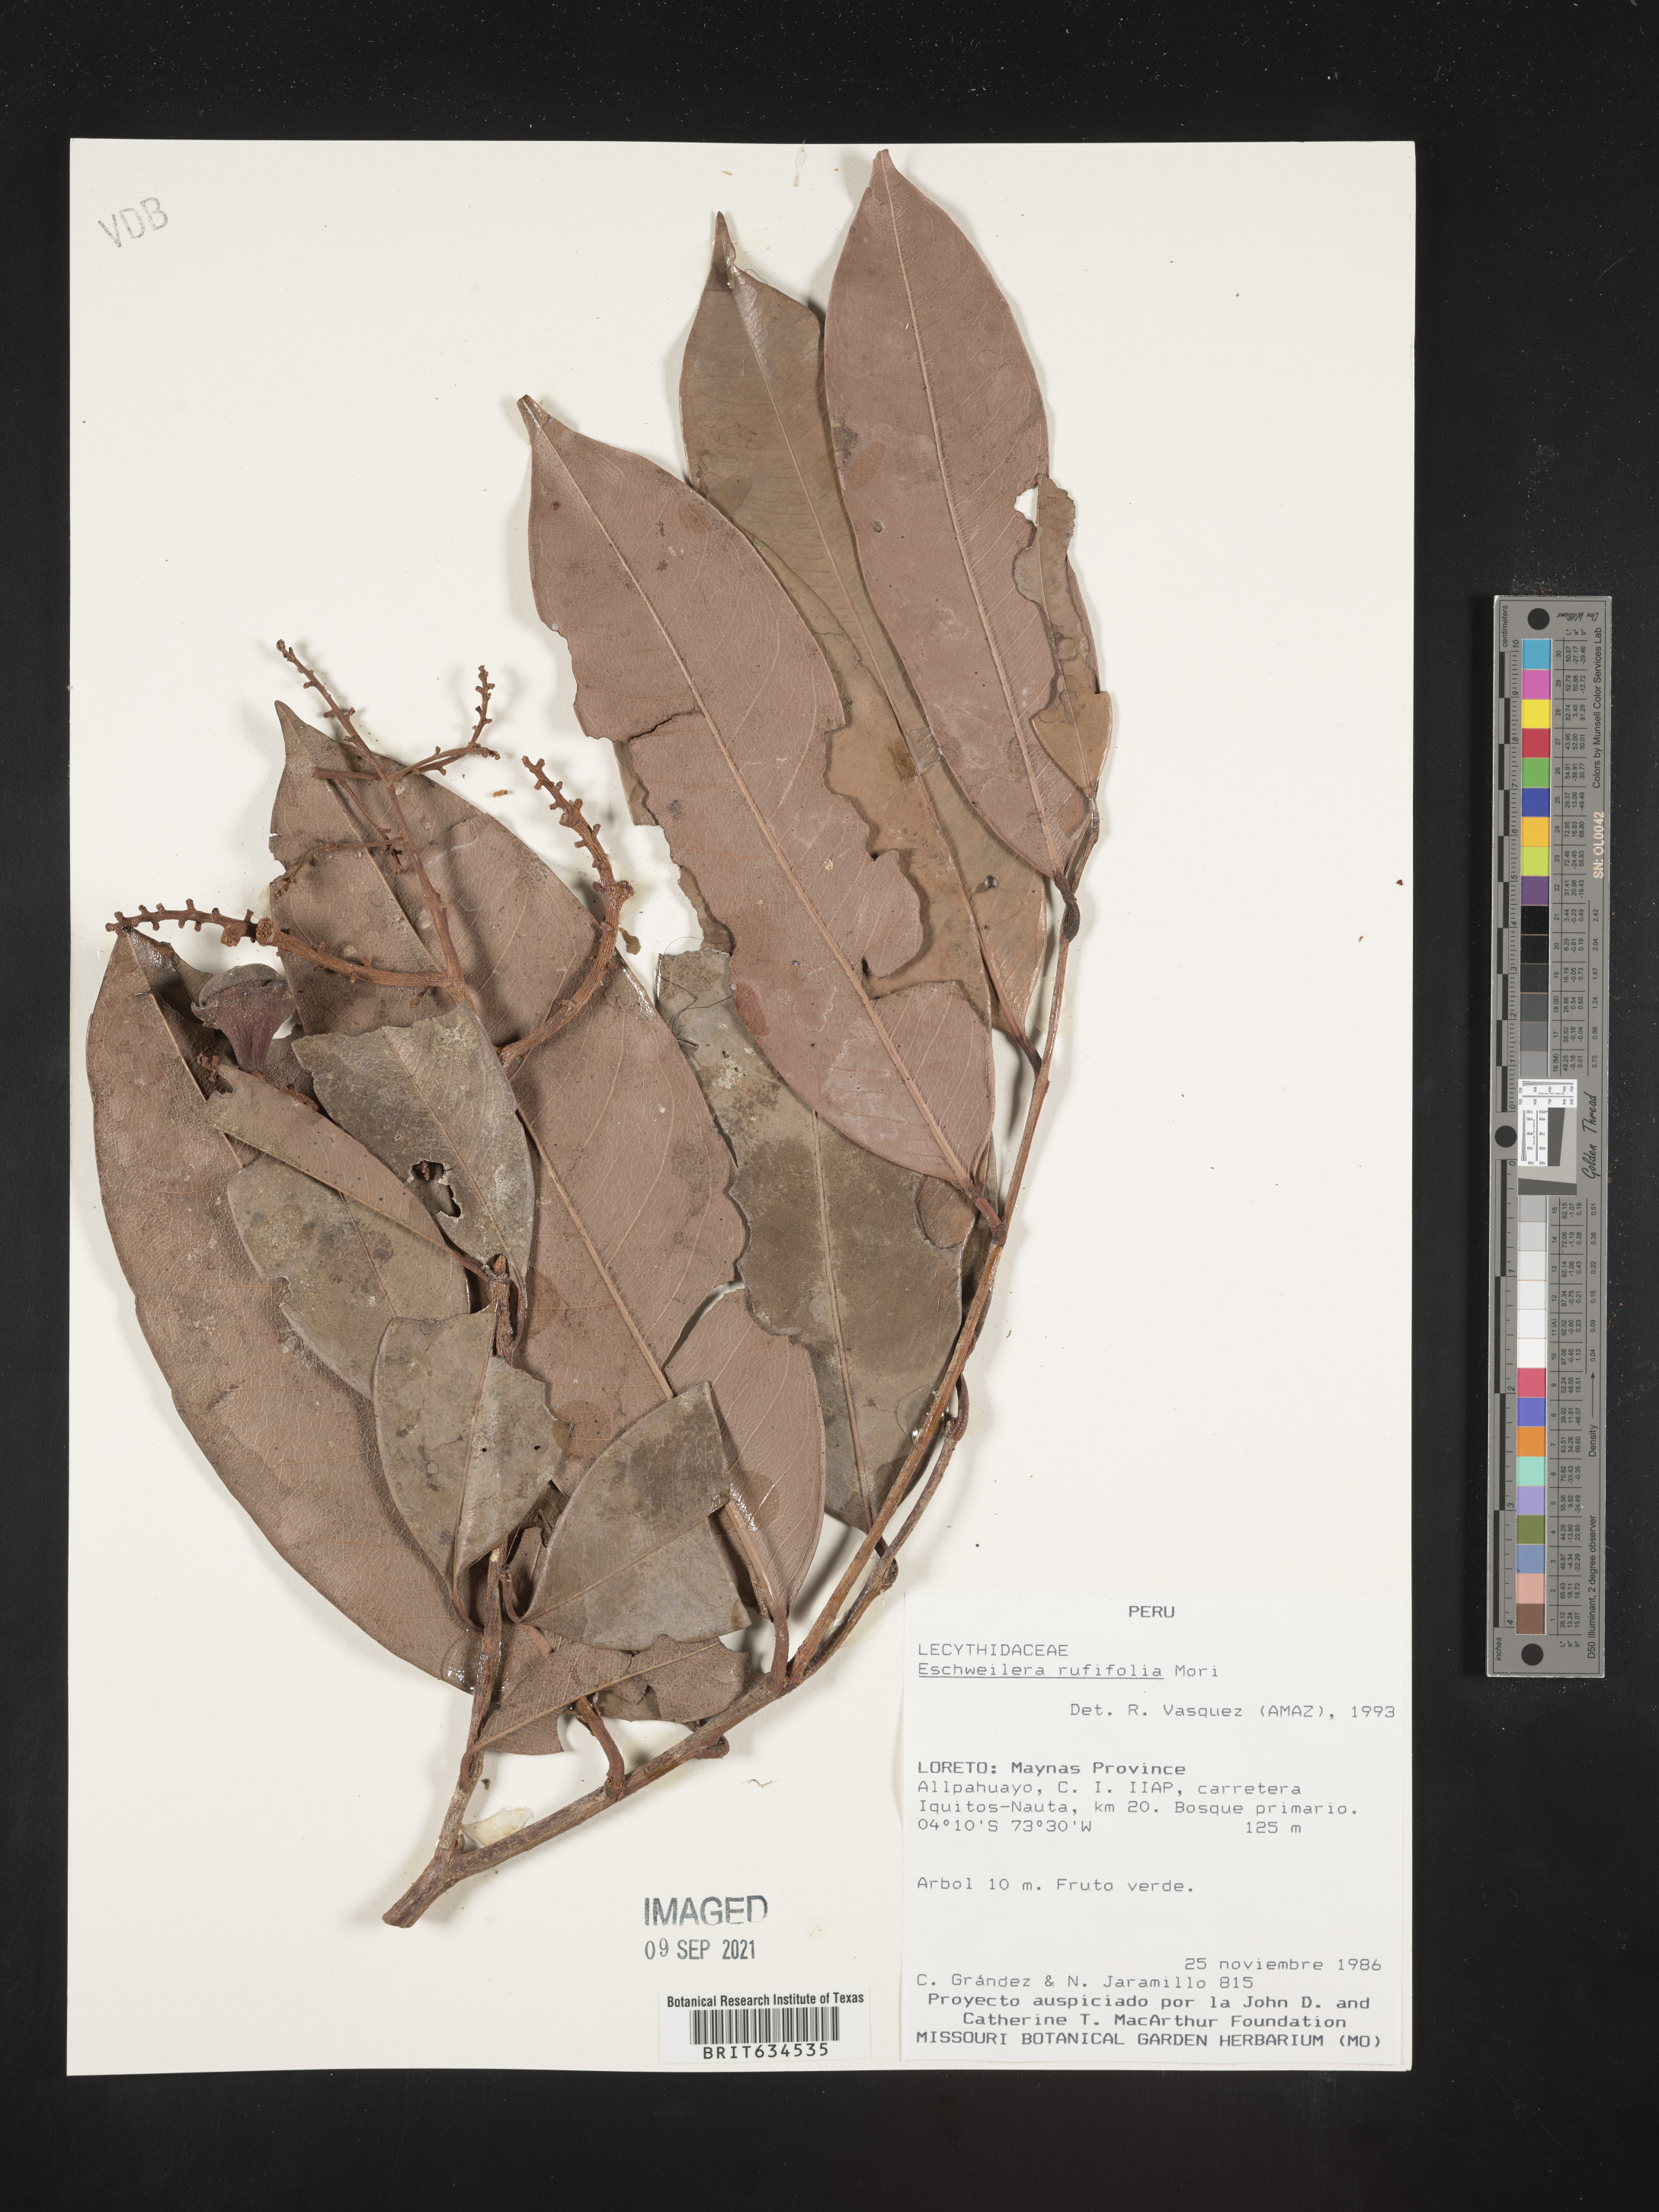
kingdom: Plantae
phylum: Tracheophyta
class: Magnoliopsida
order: Ericales
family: Lecythidaceae
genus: Eschweilera
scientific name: Eschweilera
